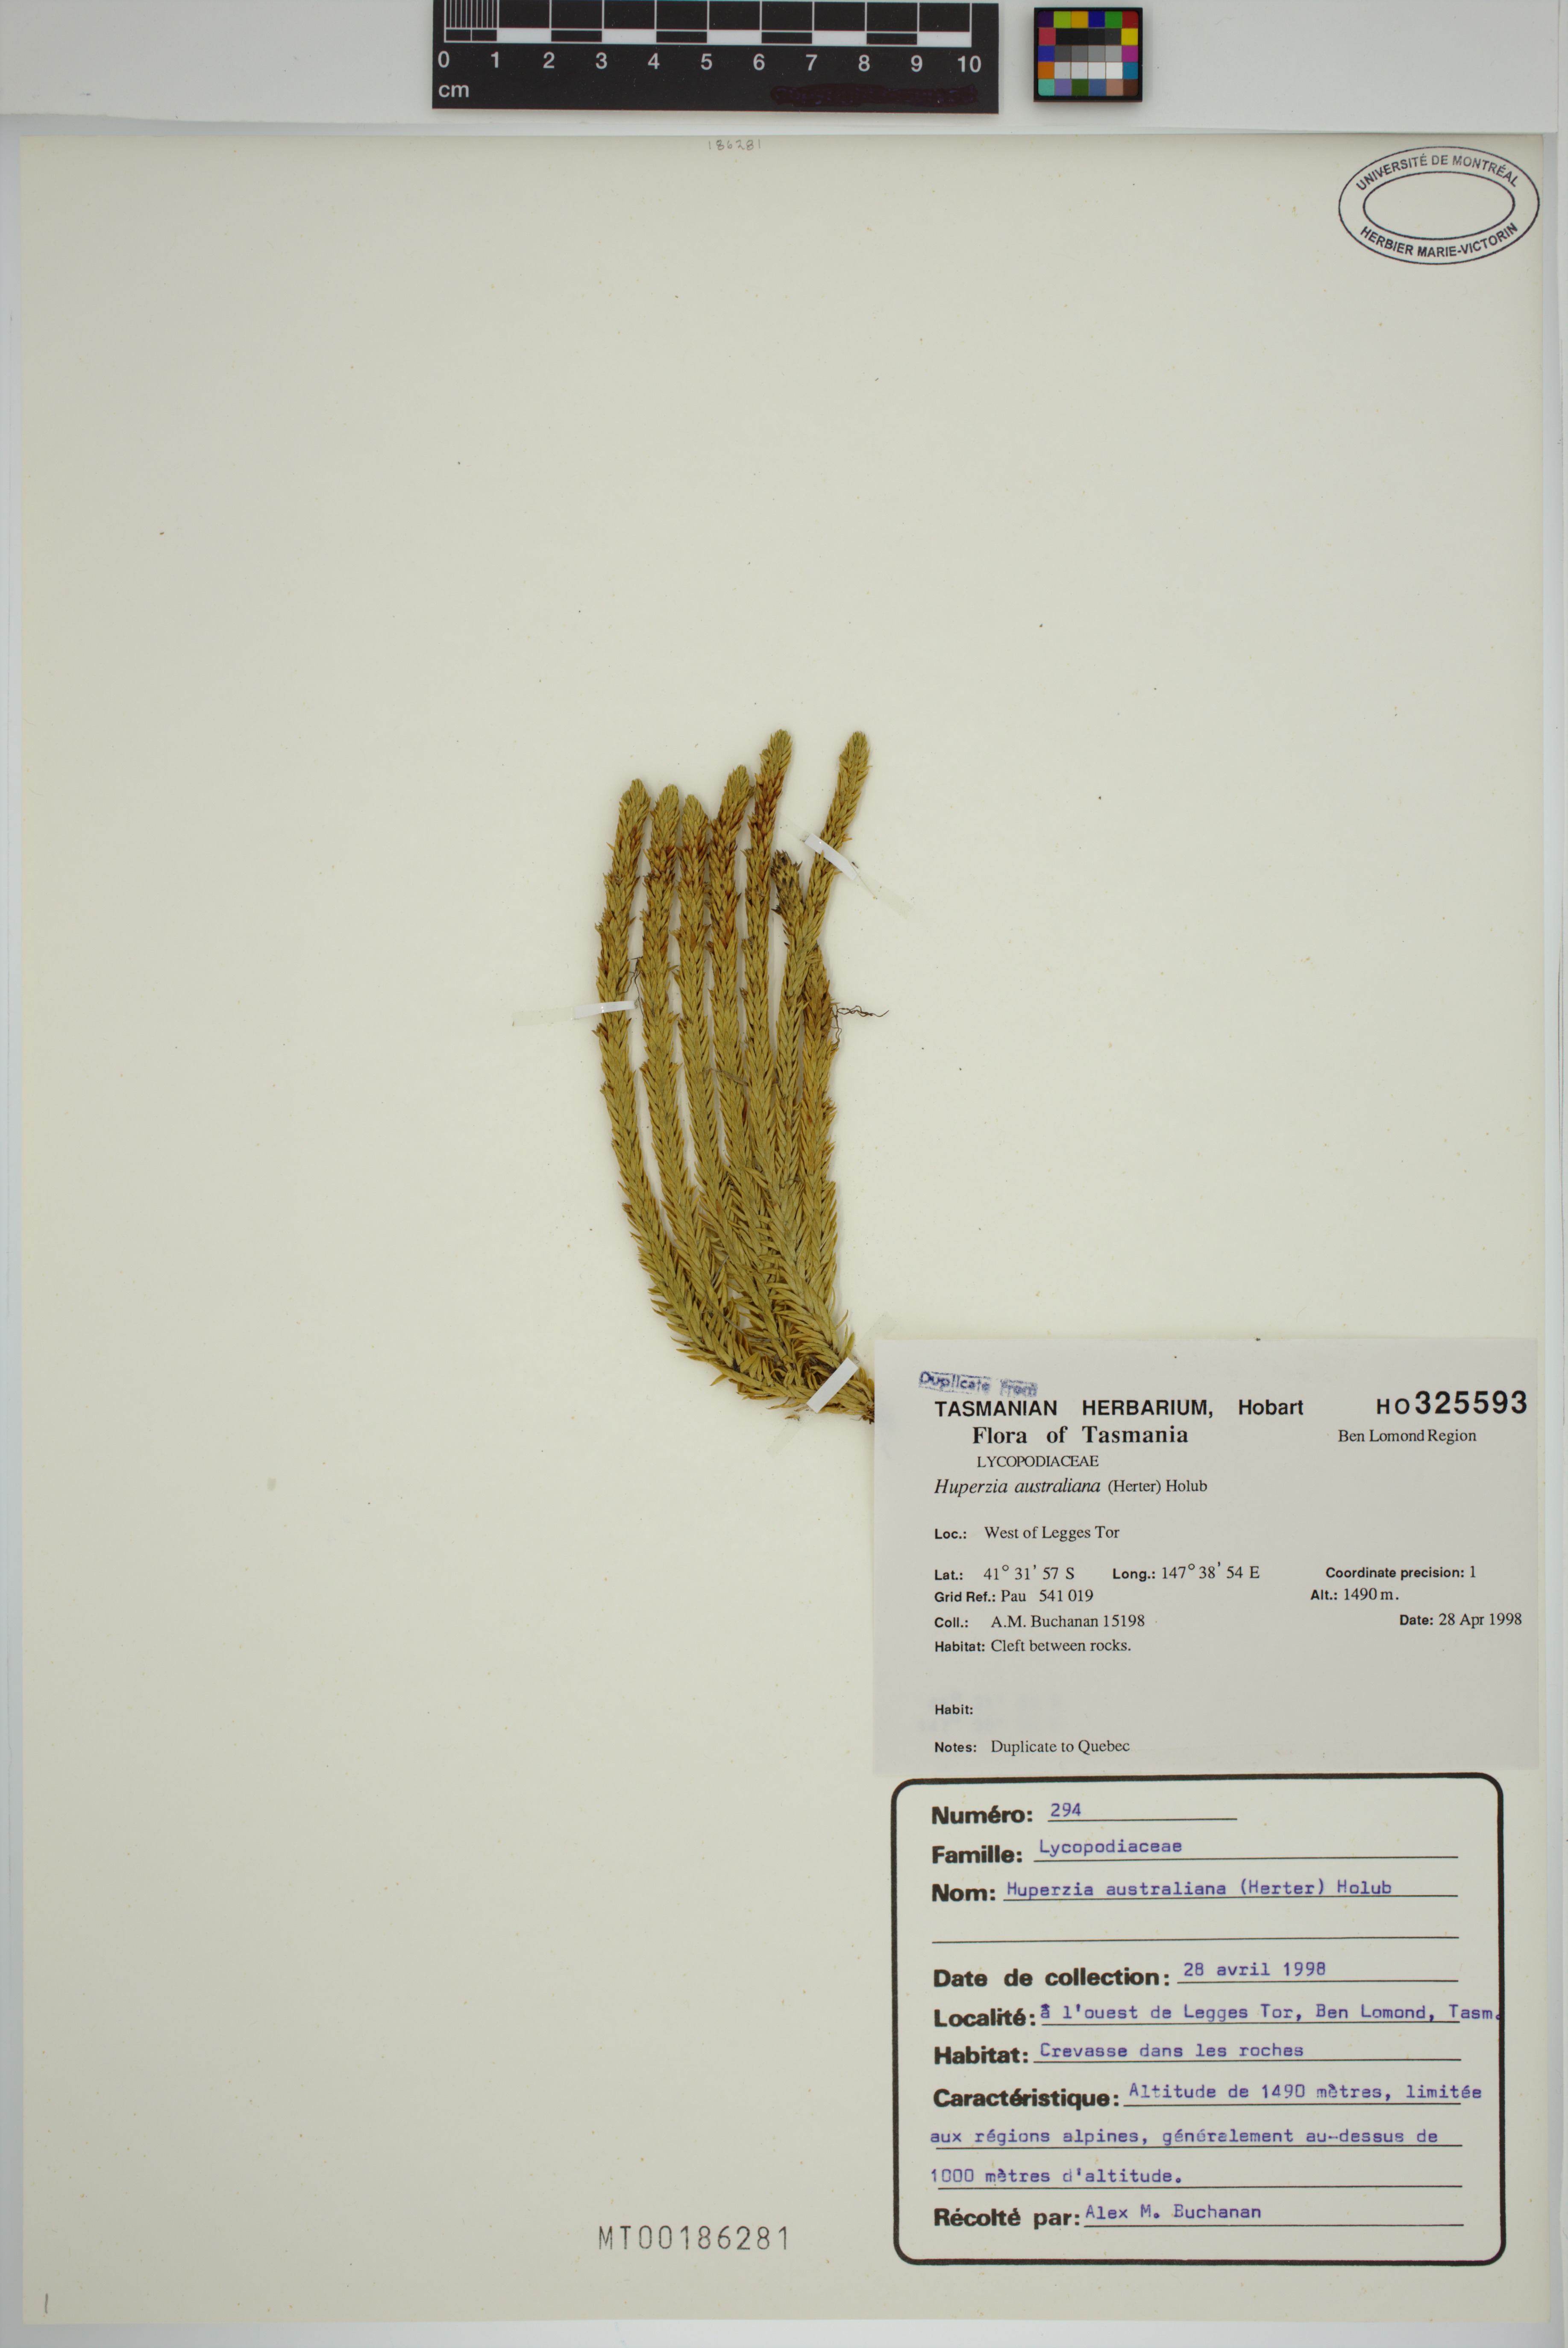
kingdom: Plantae
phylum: Tracheophyta
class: Lycopodiopsida
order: Lycopodiales
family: Lycopodiaceae
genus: Huperzia
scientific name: Huperzia australiana
